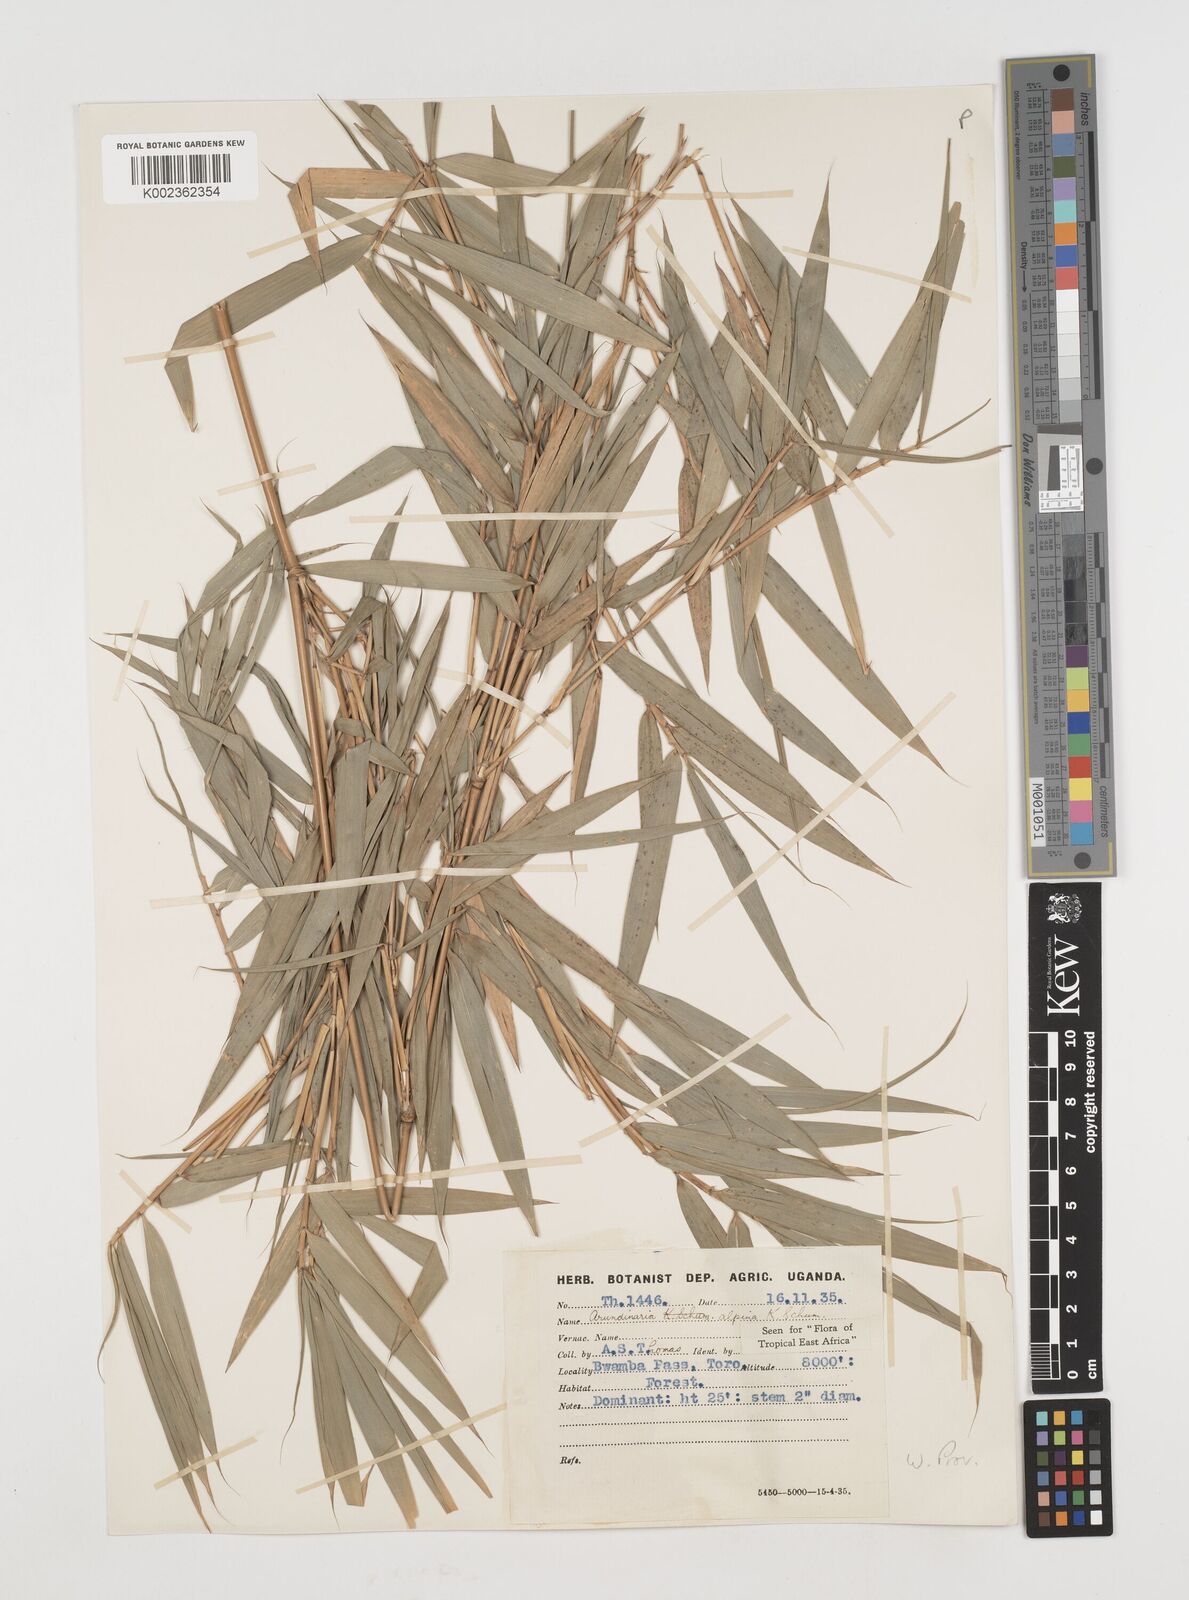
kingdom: Plantae
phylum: Tracheophyta
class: Liliopsida
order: Poales
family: Poaceae
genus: Oldeania
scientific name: Oldeania alpina
